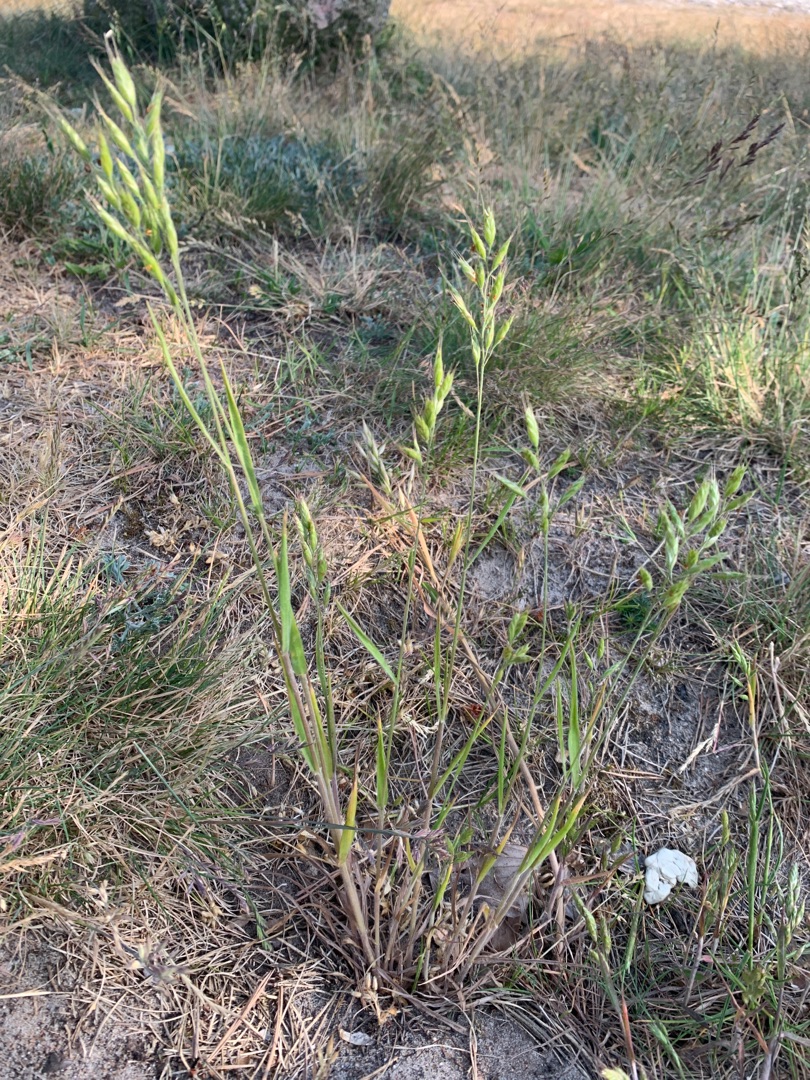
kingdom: Plantae
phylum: Tracheophyta
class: Liliopsida
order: Poales
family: Poaceae
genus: Bromus
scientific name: Bromus hordeaceus
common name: Blød hejre
